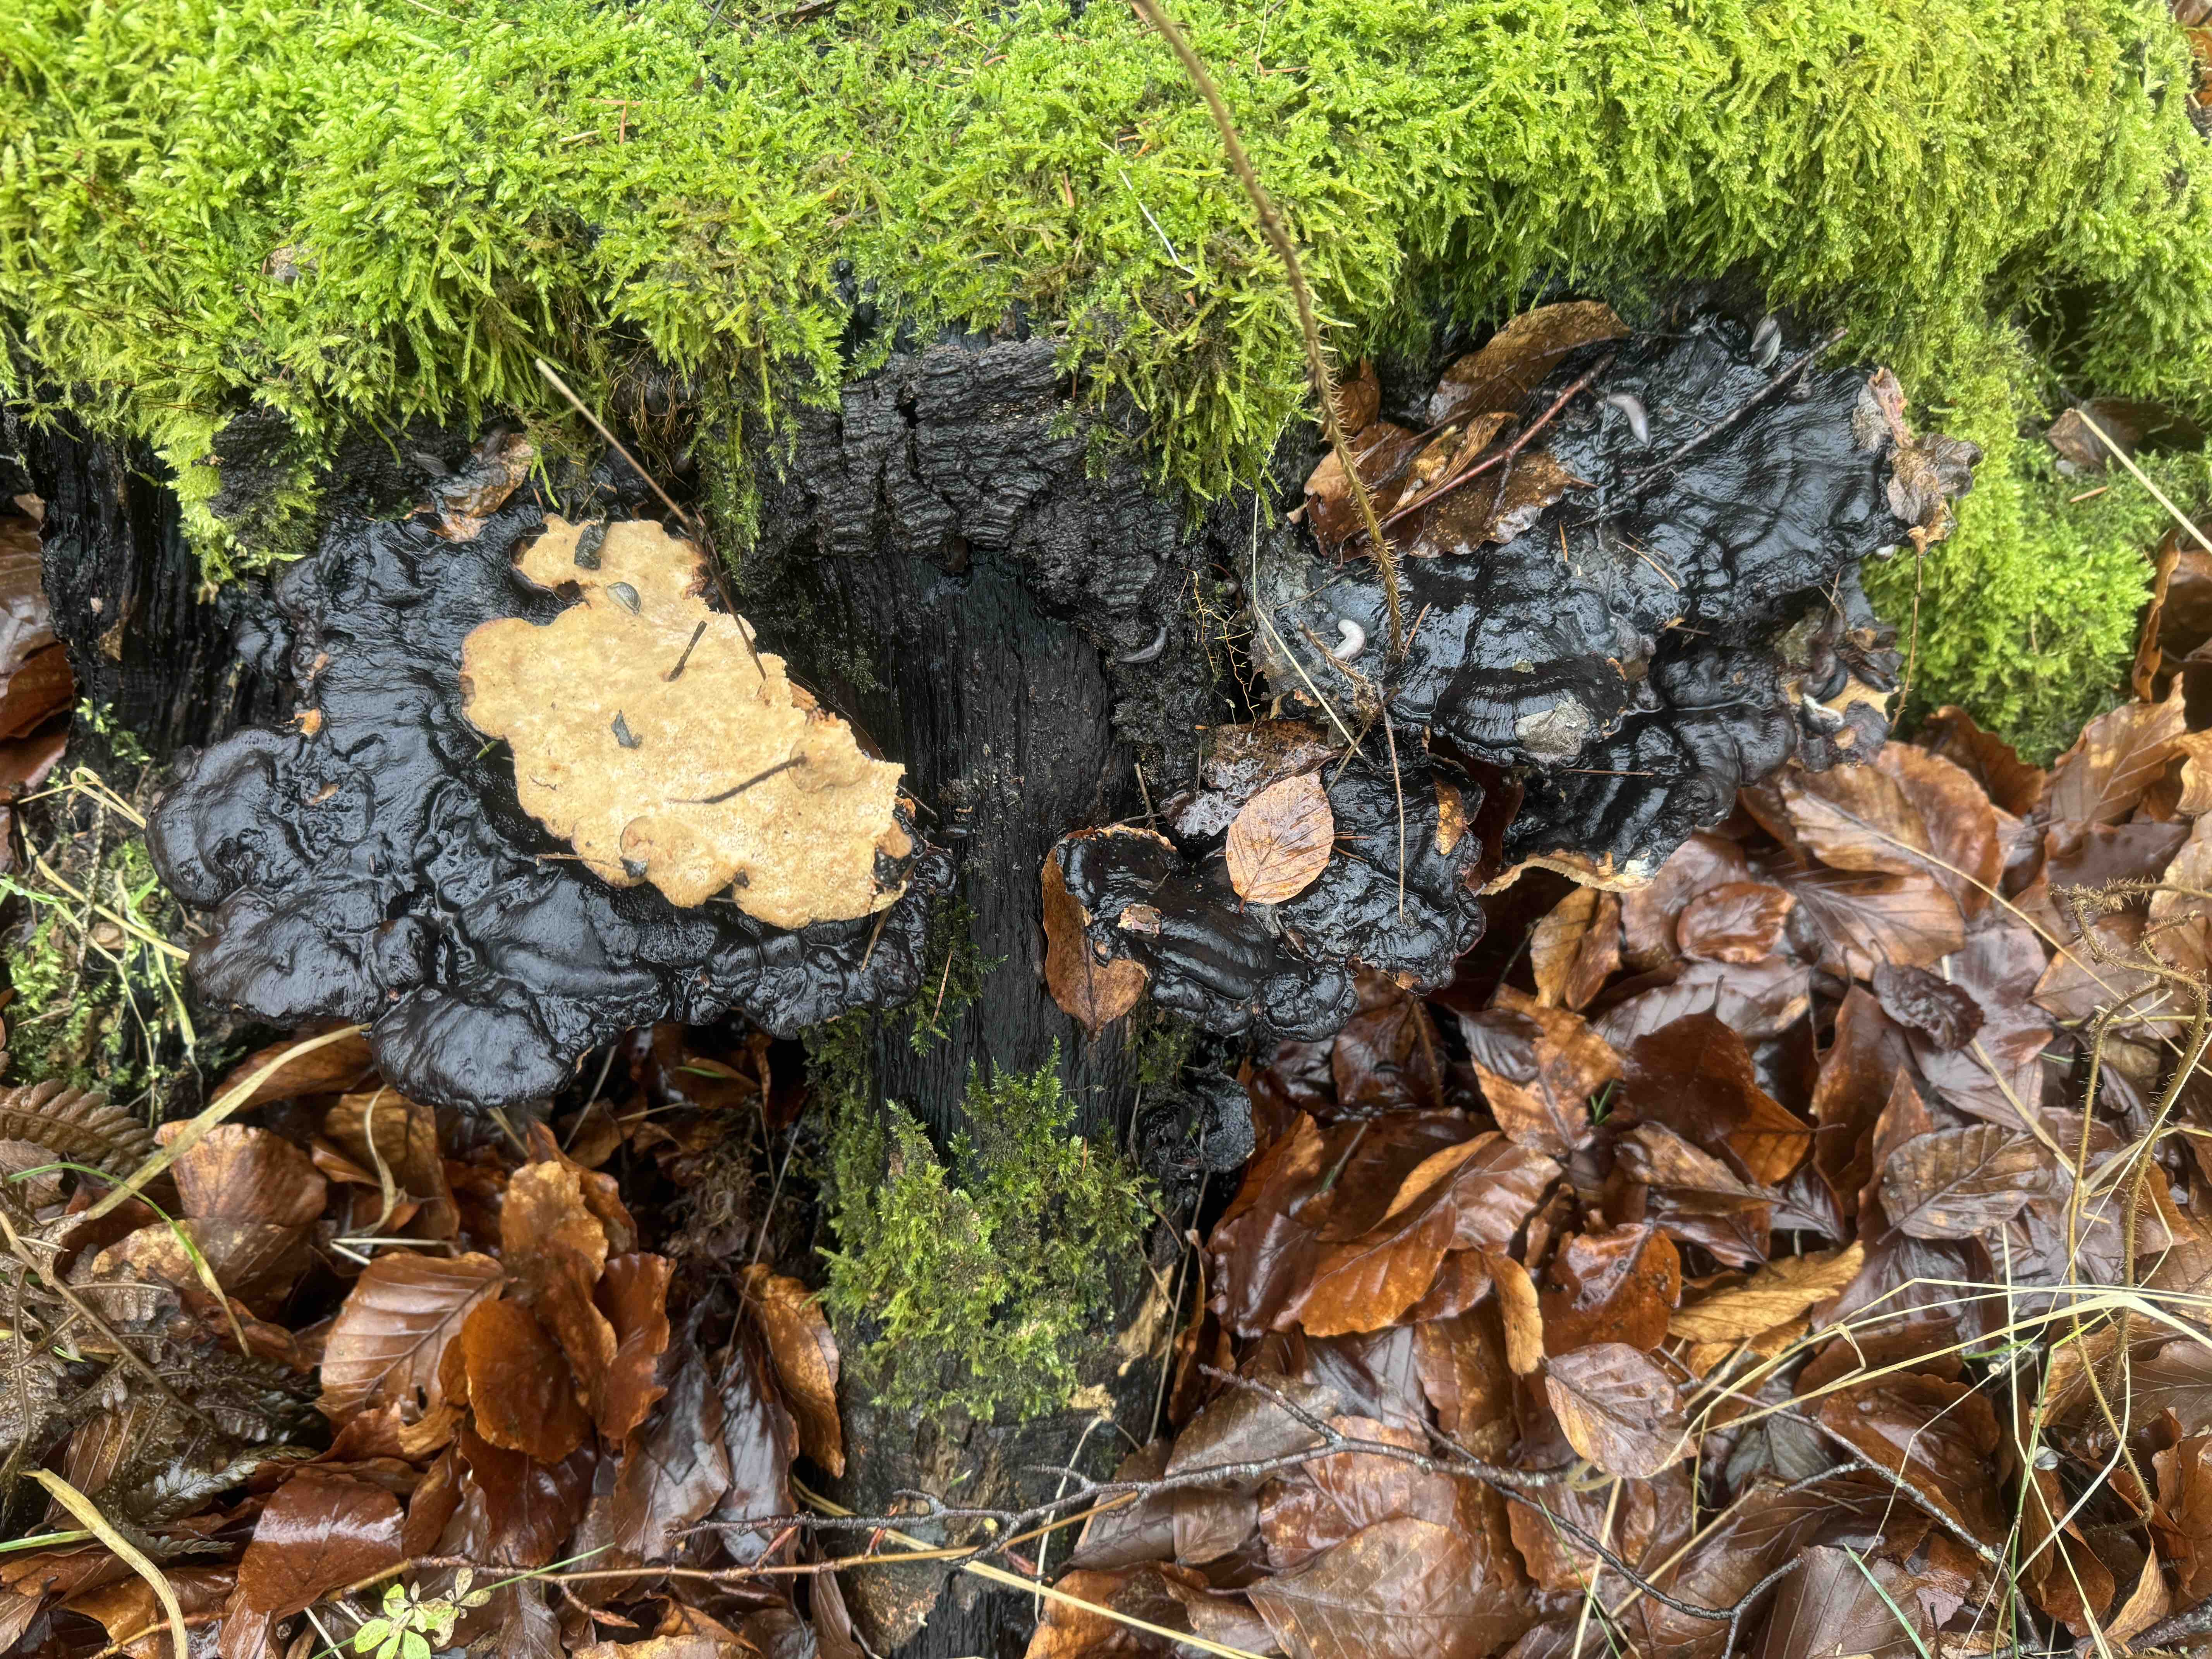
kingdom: Fungi
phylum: Basidiomycota
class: Agaricomycetes
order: Polyporales
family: Ischnodermataceae
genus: Ischnoderma
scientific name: Ischnoderma resinosum
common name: løv-tjæreporesvamp
